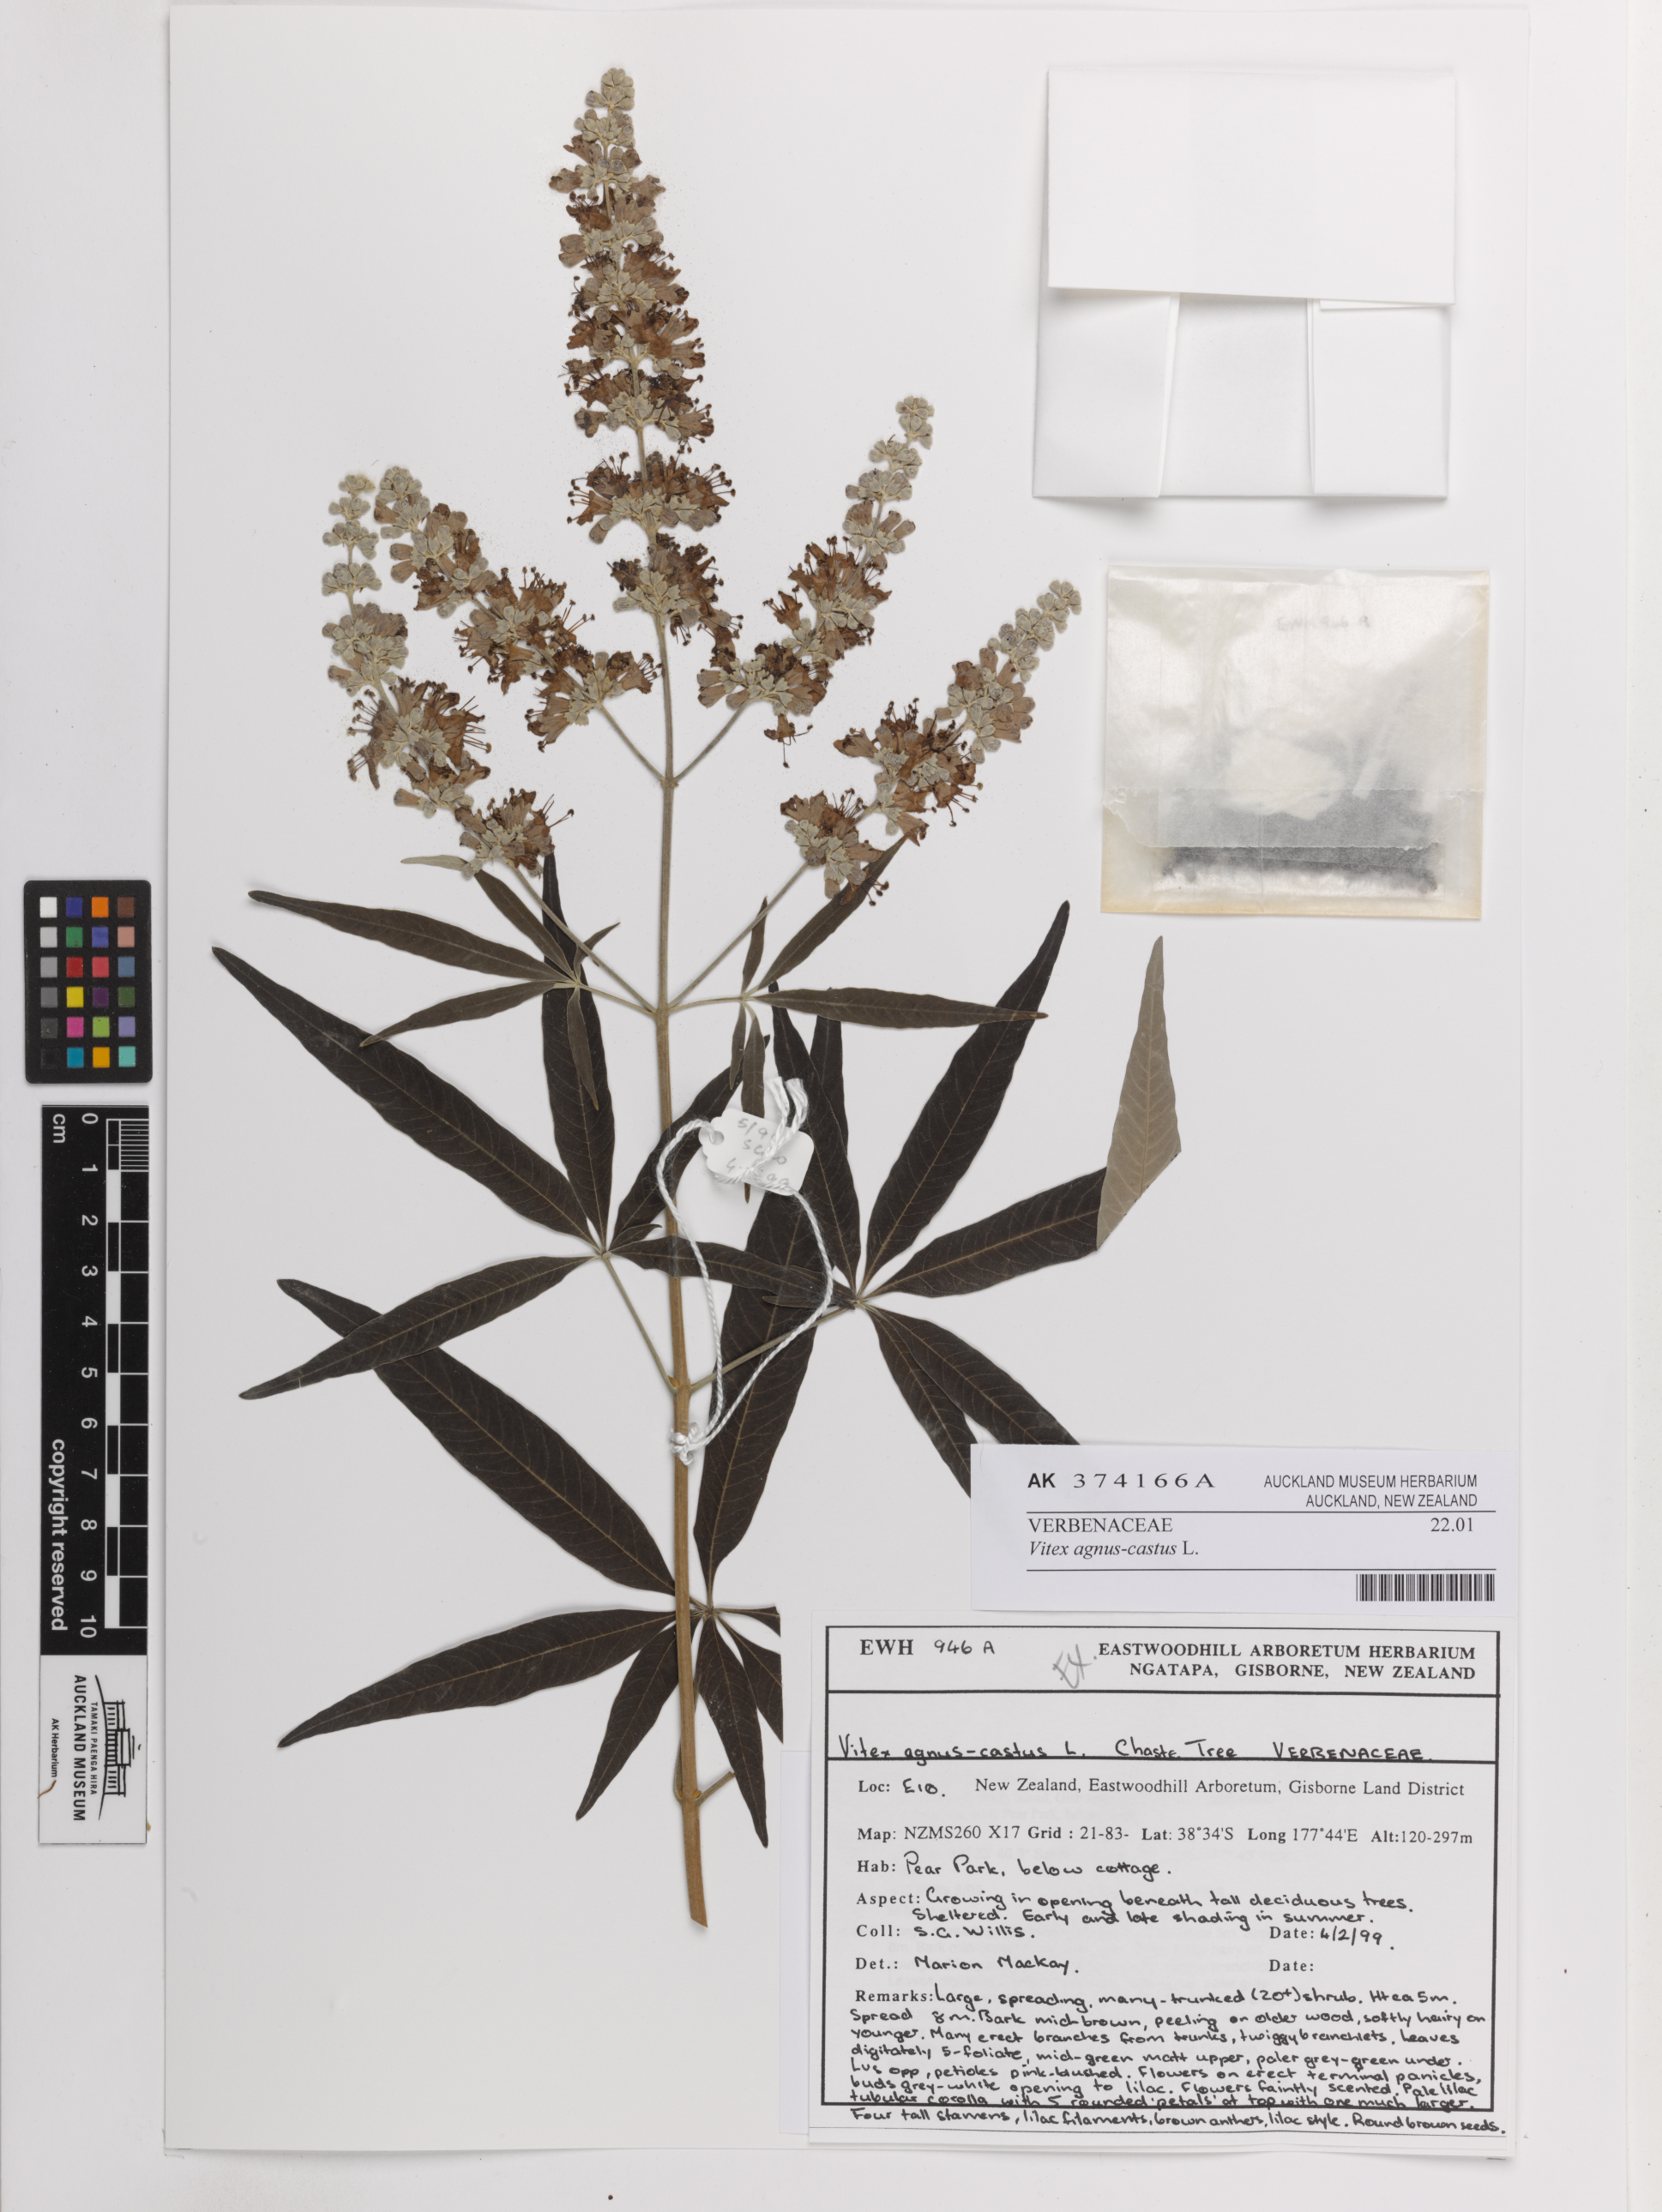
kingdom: Plantae
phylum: Tracheophyta
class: Magnoliopsida
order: Lamiales
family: Lamiaceae
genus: Vitex
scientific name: Vitex agnus-castus
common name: Chasteberry
